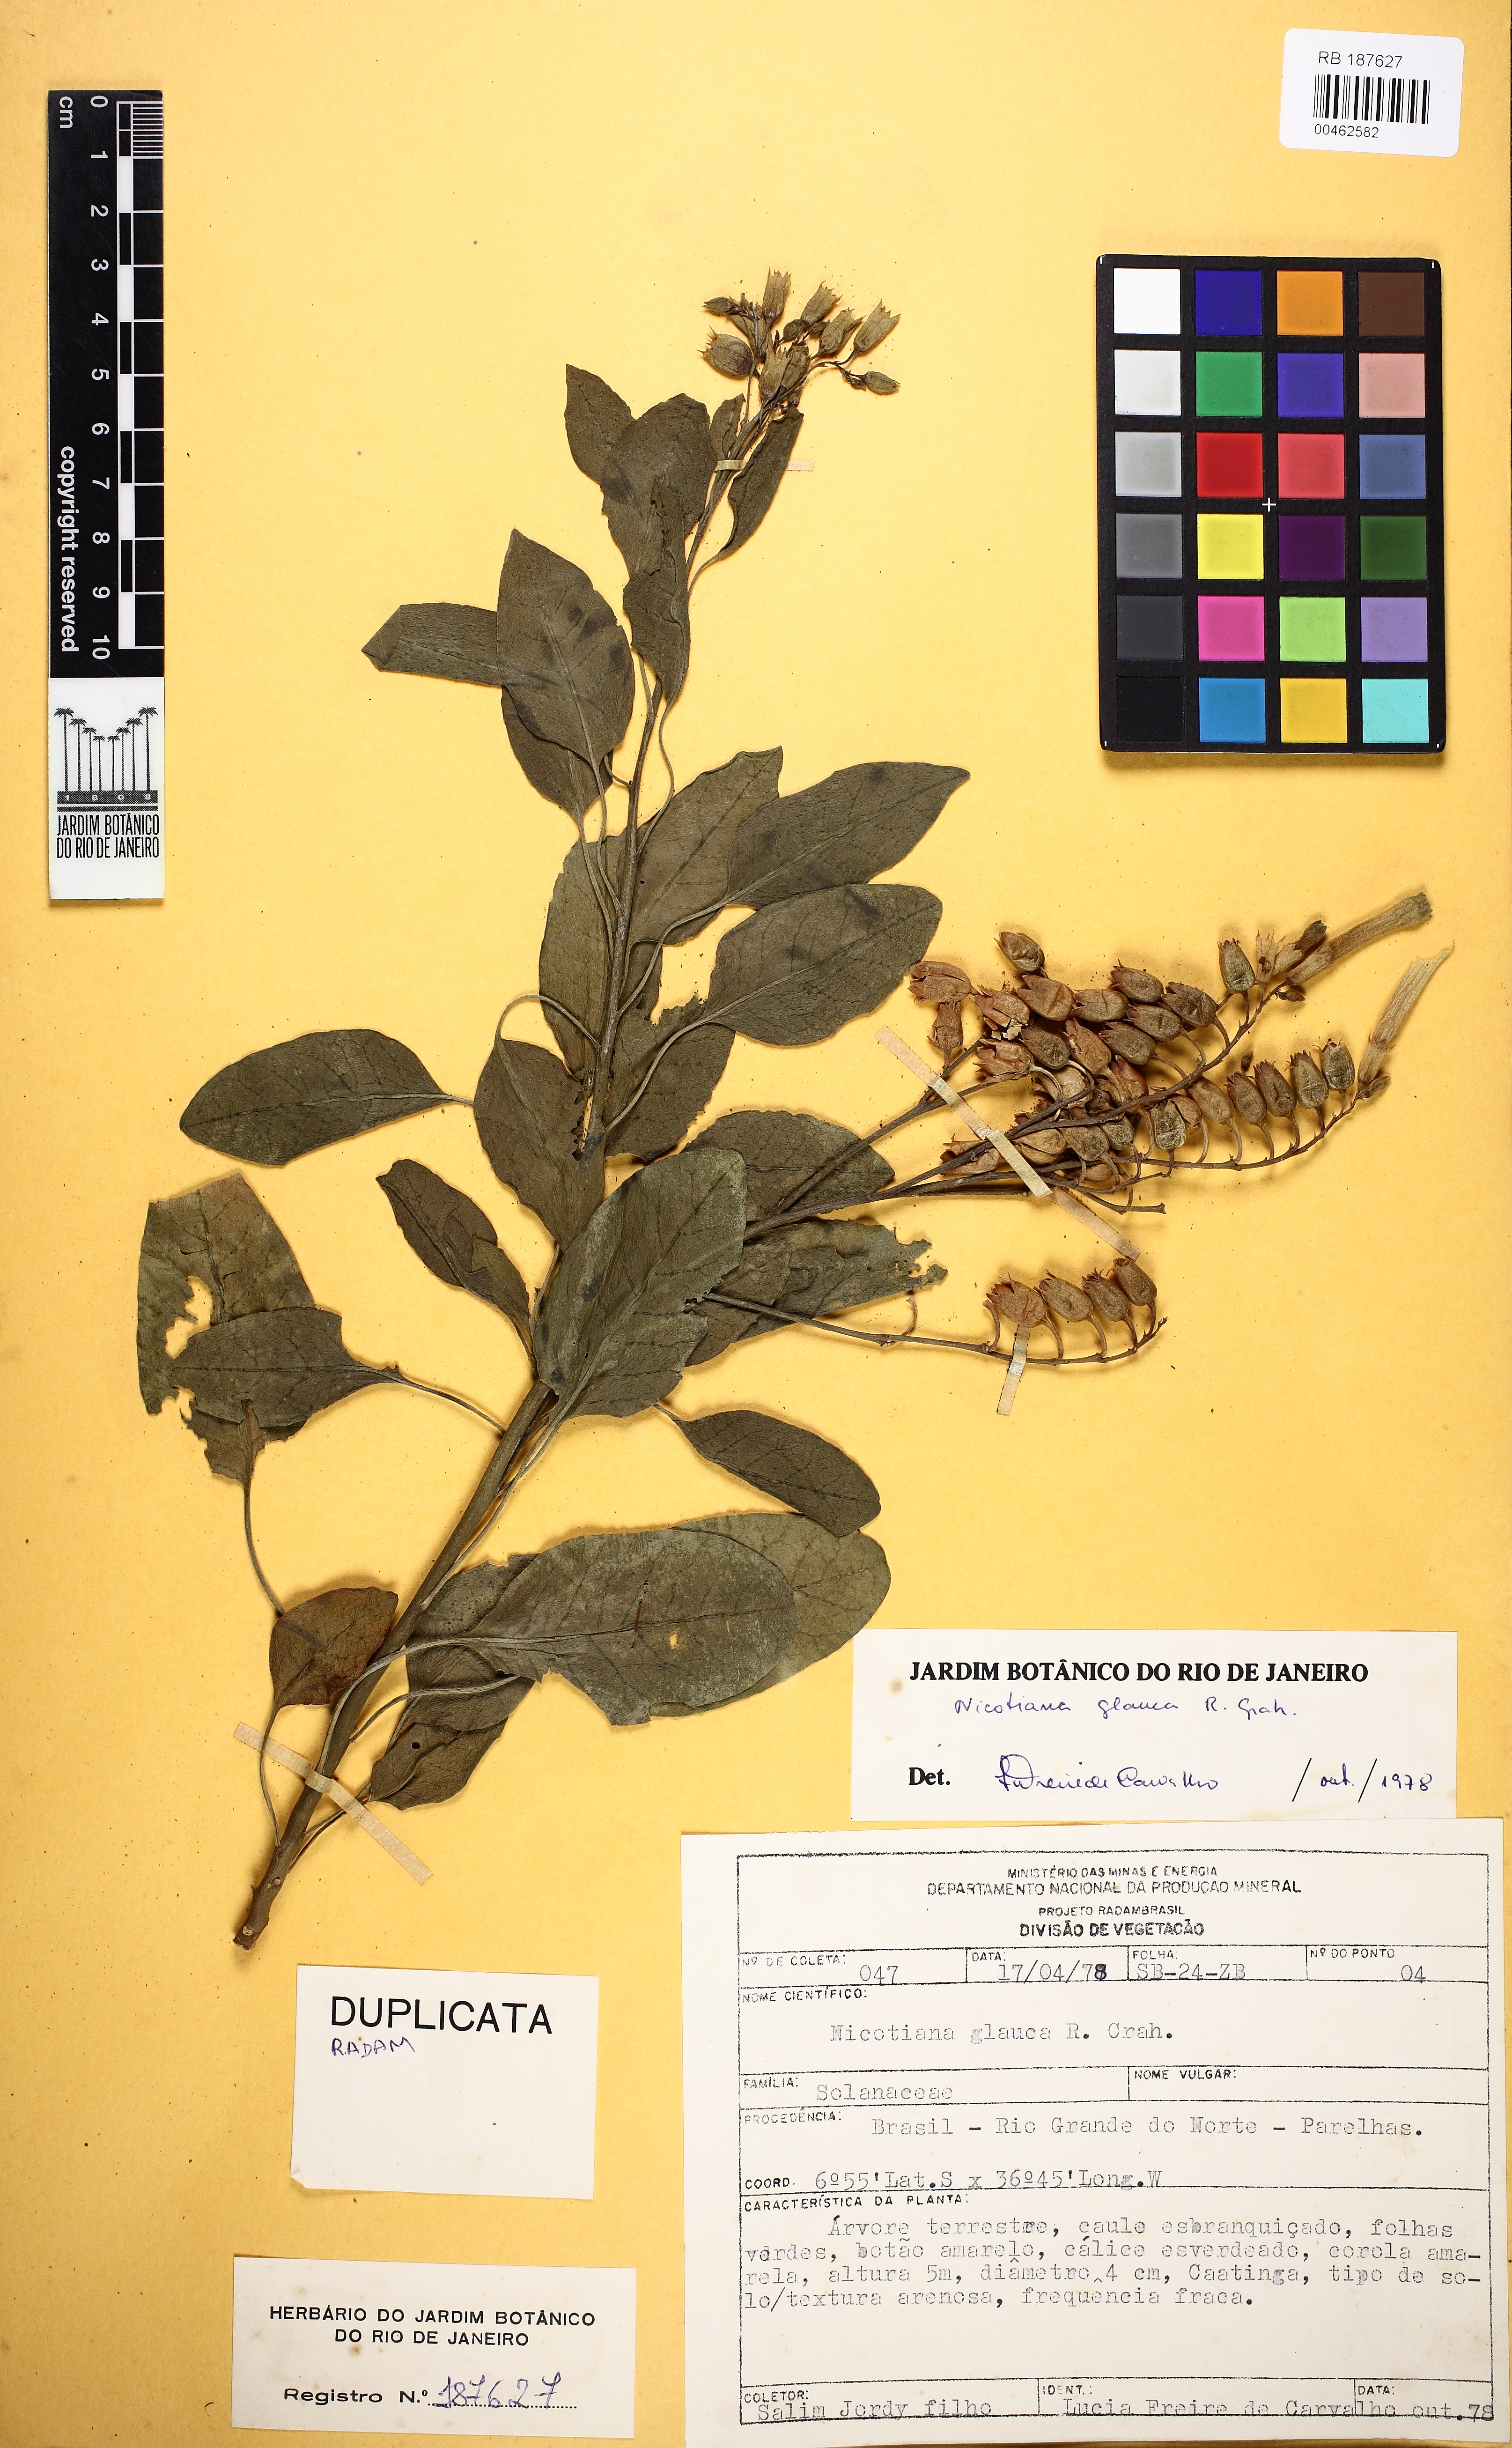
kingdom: Plantae
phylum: Tracheophyta
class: Magnoliopsida
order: Solanales
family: Solanaceae
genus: Nicotiana
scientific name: Nicotiana glauca
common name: Tree tobacco
